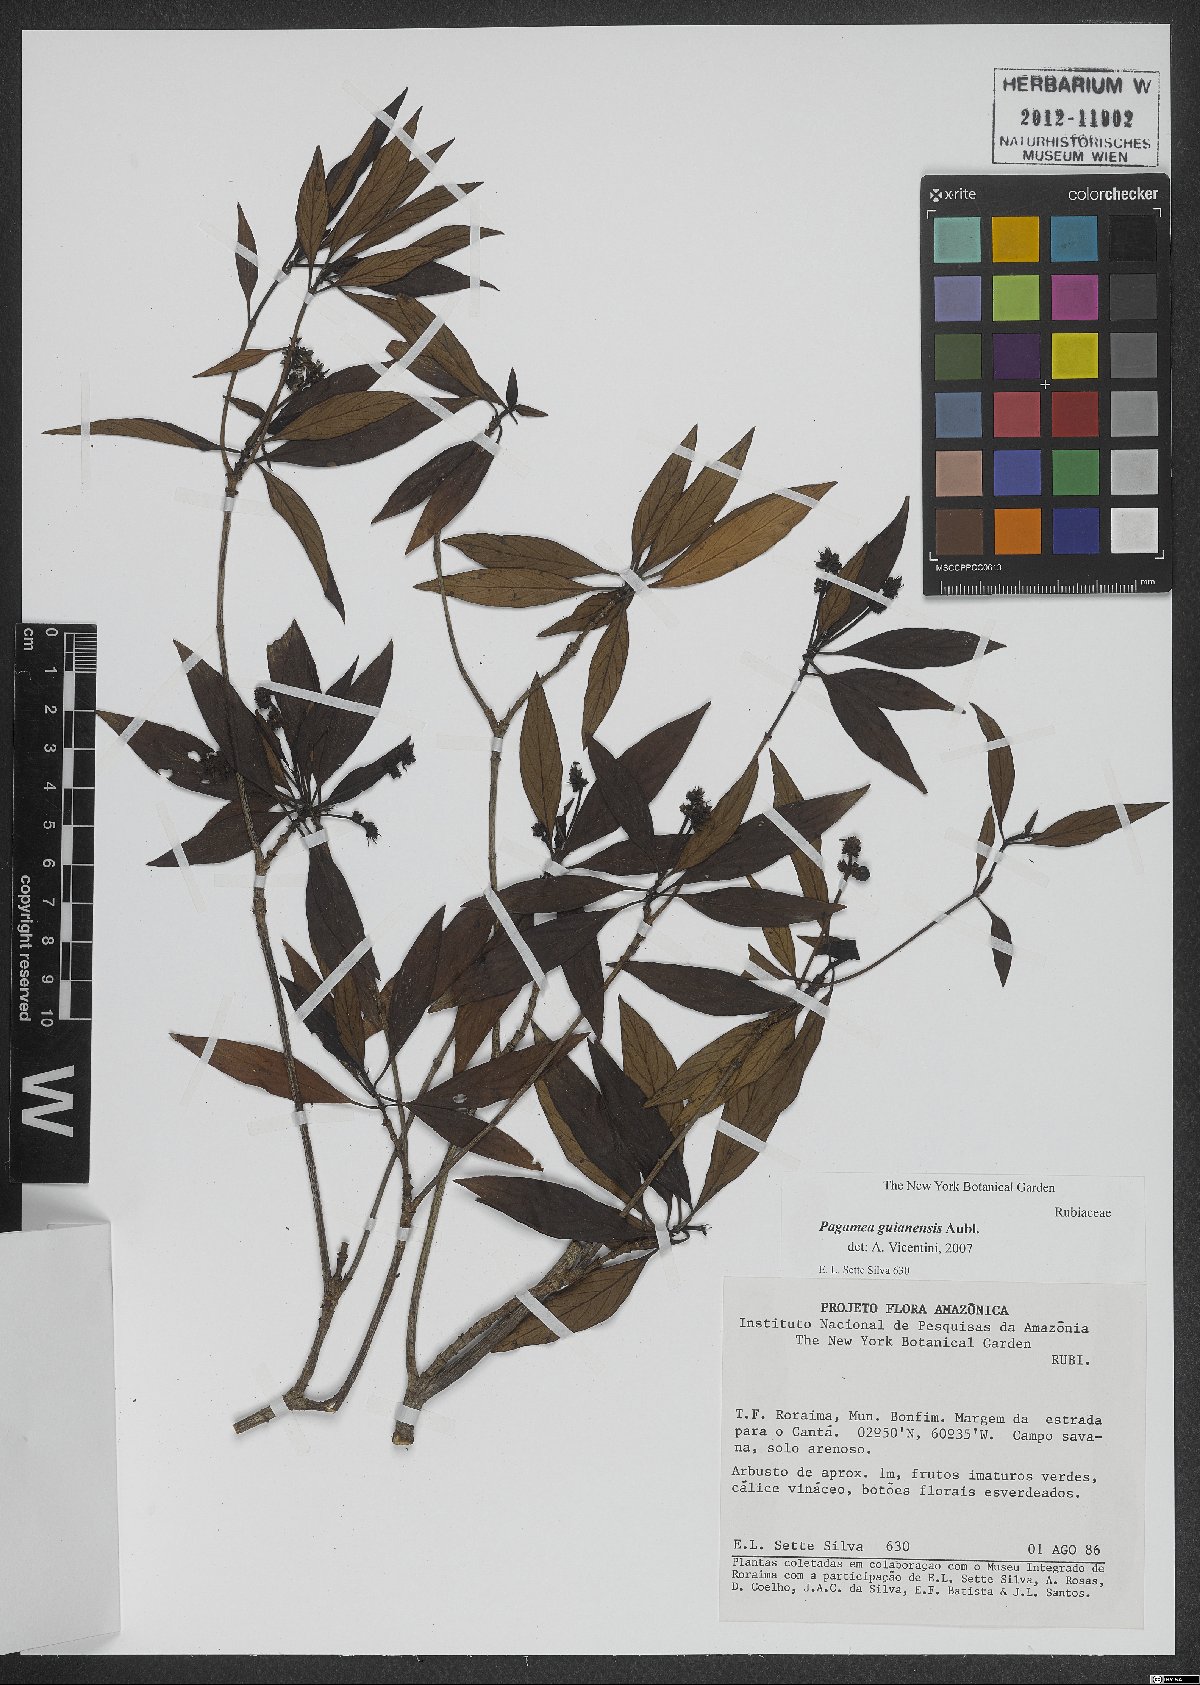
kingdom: Plantae
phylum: Tracheophyta
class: Magnoliopsida
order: Gentianales
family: Rubiaceae
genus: Pagamea
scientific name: Pagamea guianensis
